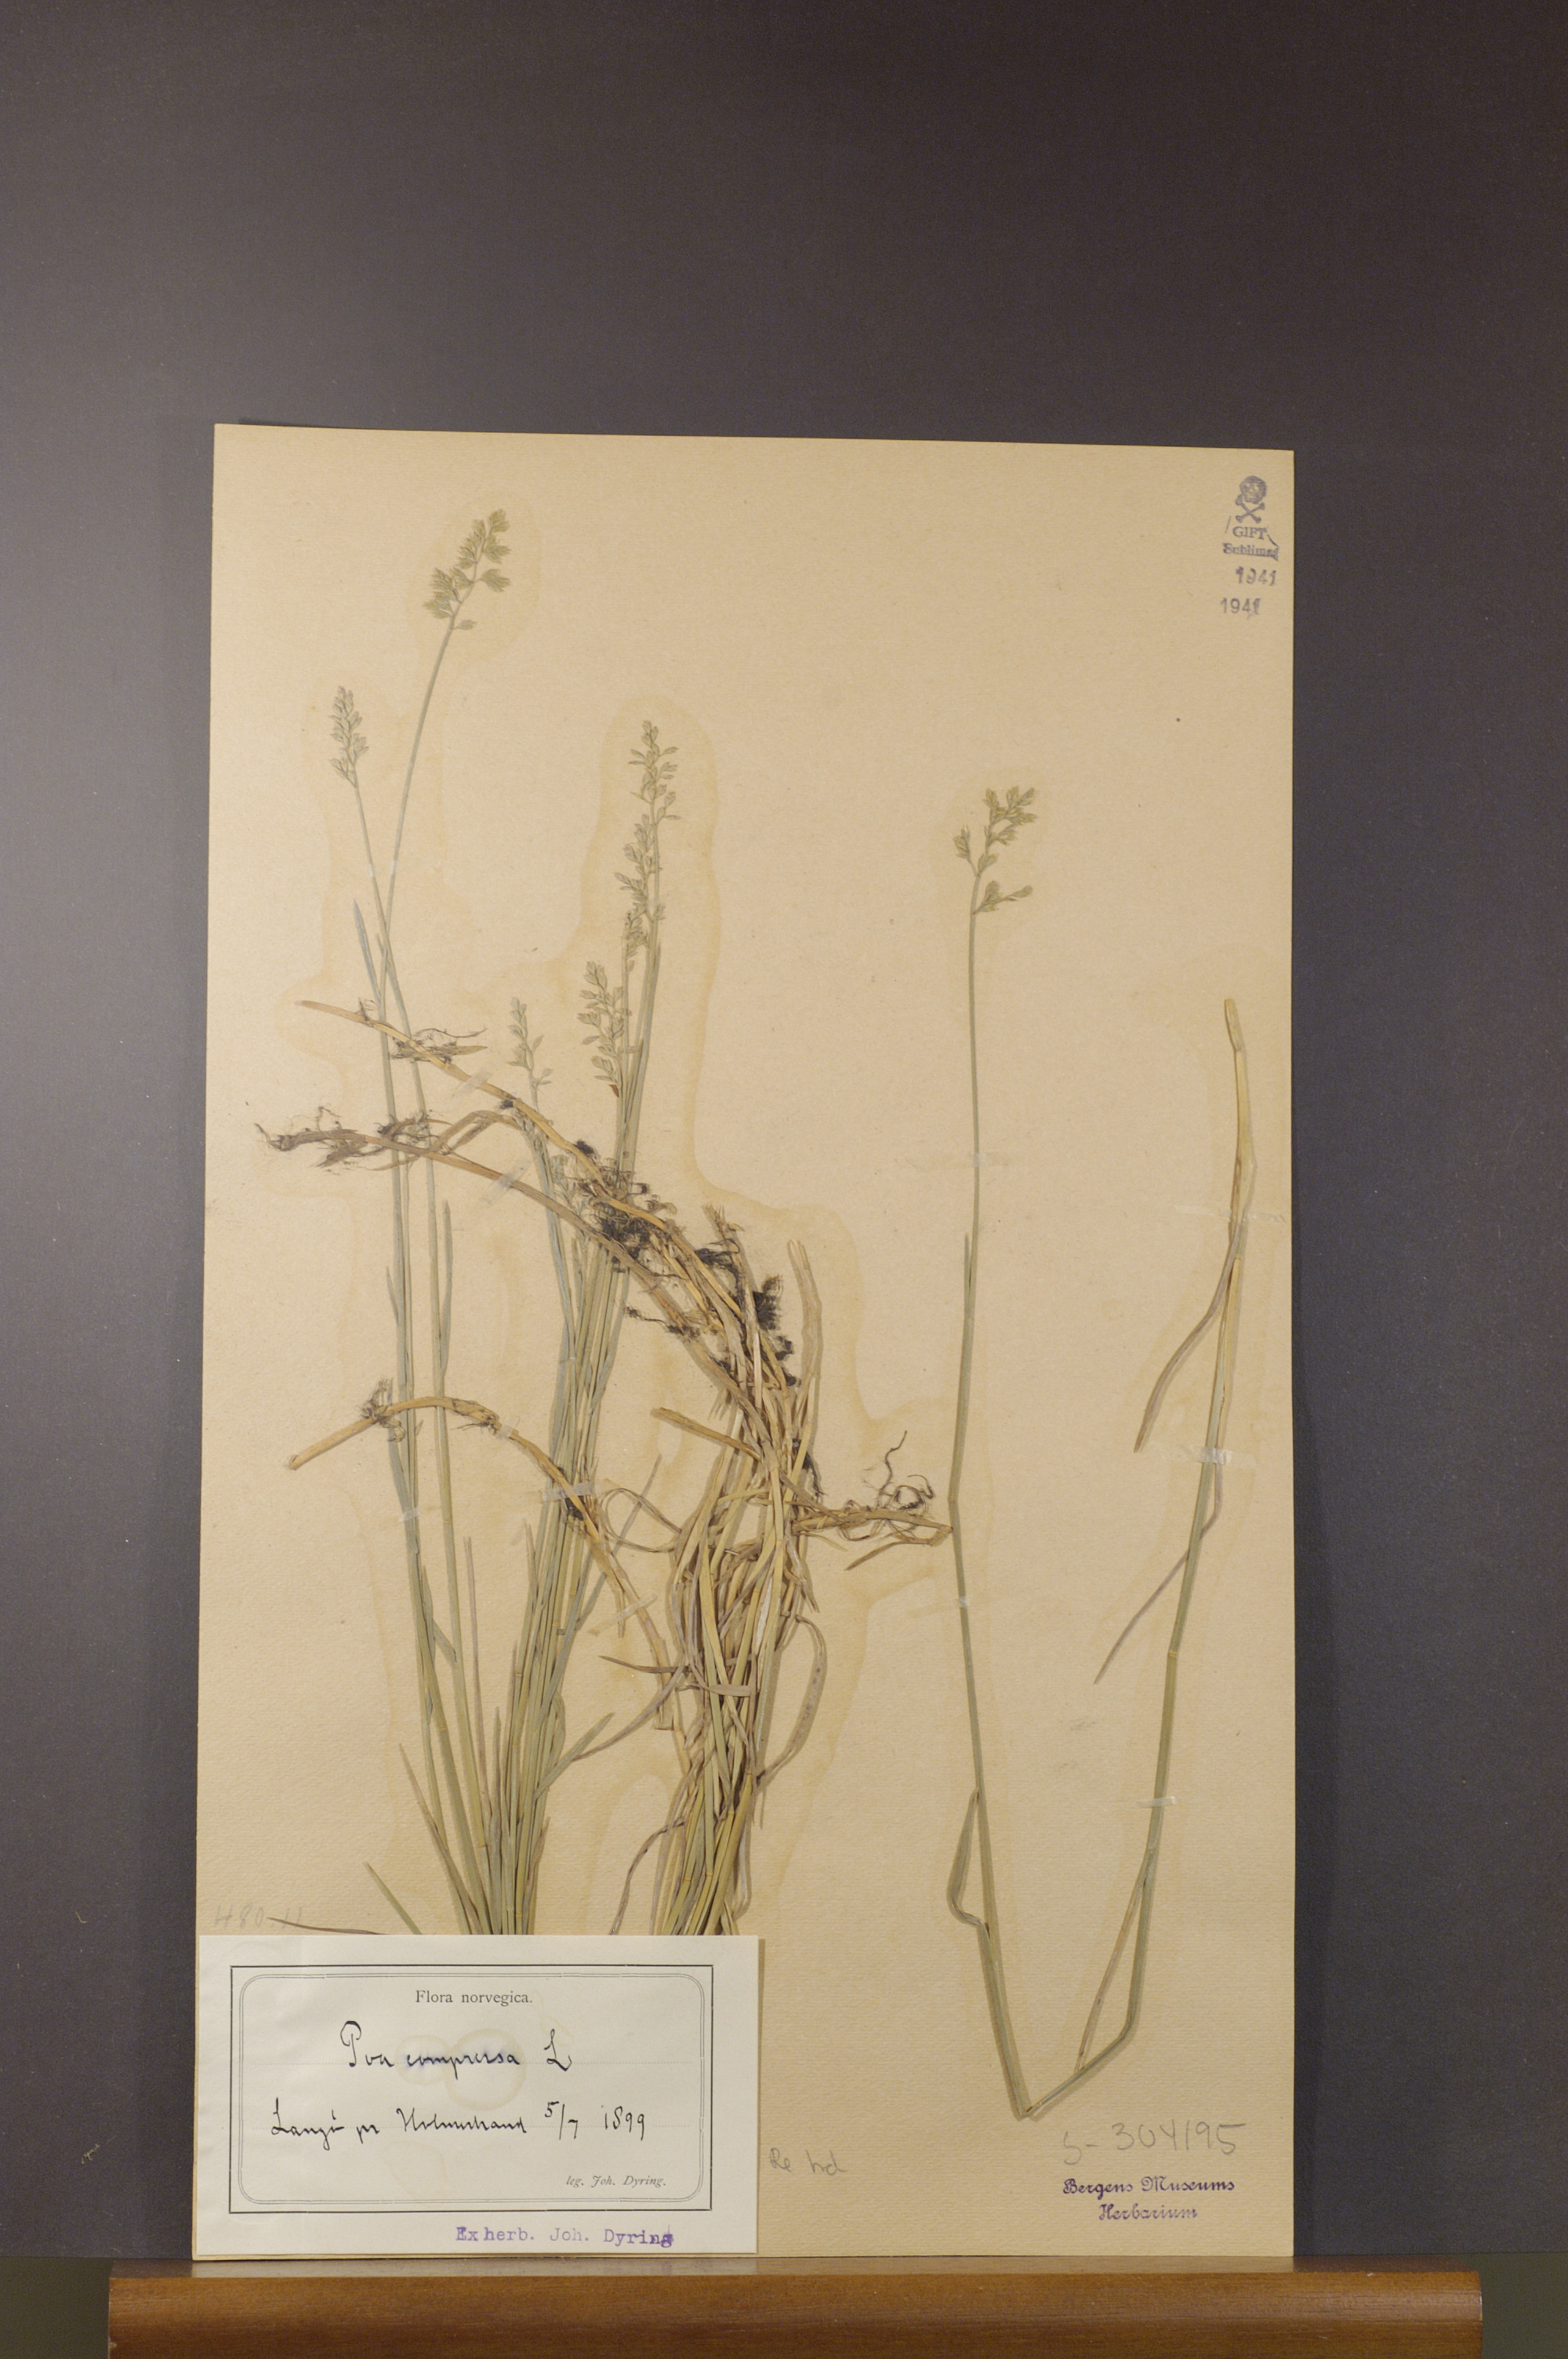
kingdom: Plantae
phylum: Tracheophyta
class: Liliopsida
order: Poales
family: Poaceae
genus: Poa
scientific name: Poa compressa
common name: Canada bluegrass
